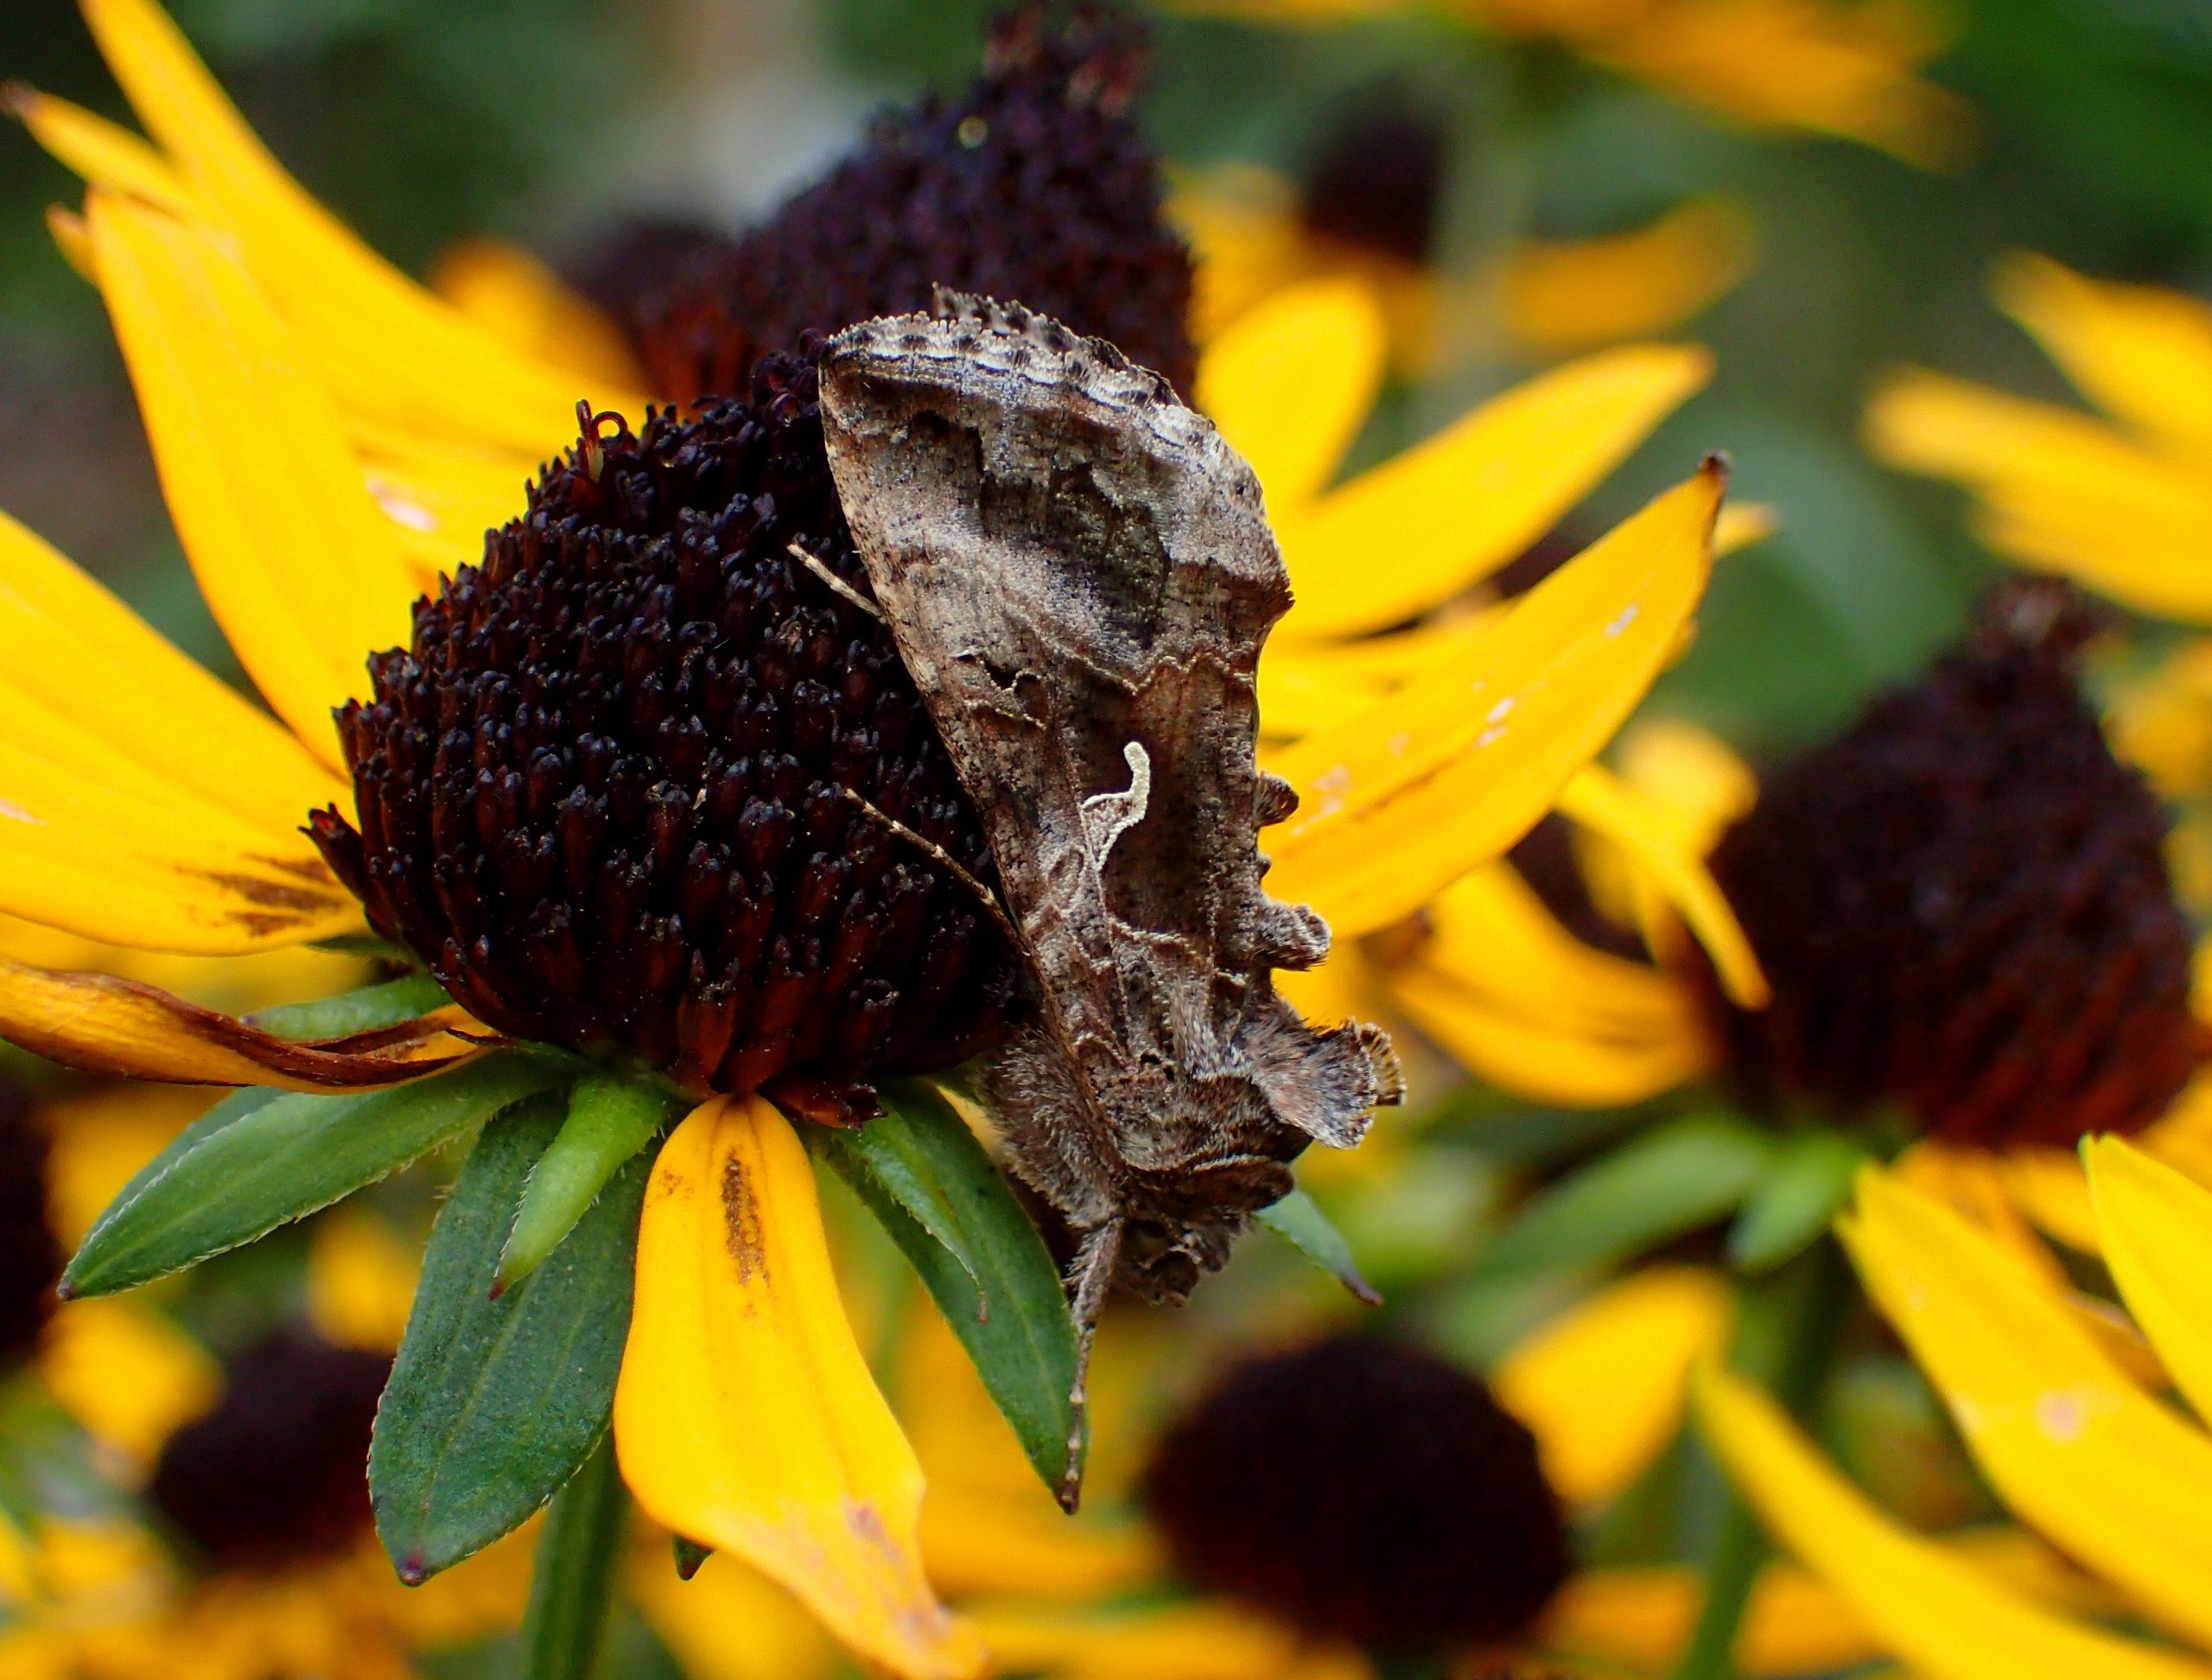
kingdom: Animalia
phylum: Arthropoda
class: Insecta
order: Lepidoptera
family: Noctuidae
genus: Autographa
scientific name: Autographa gamma
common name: Gammaugle
